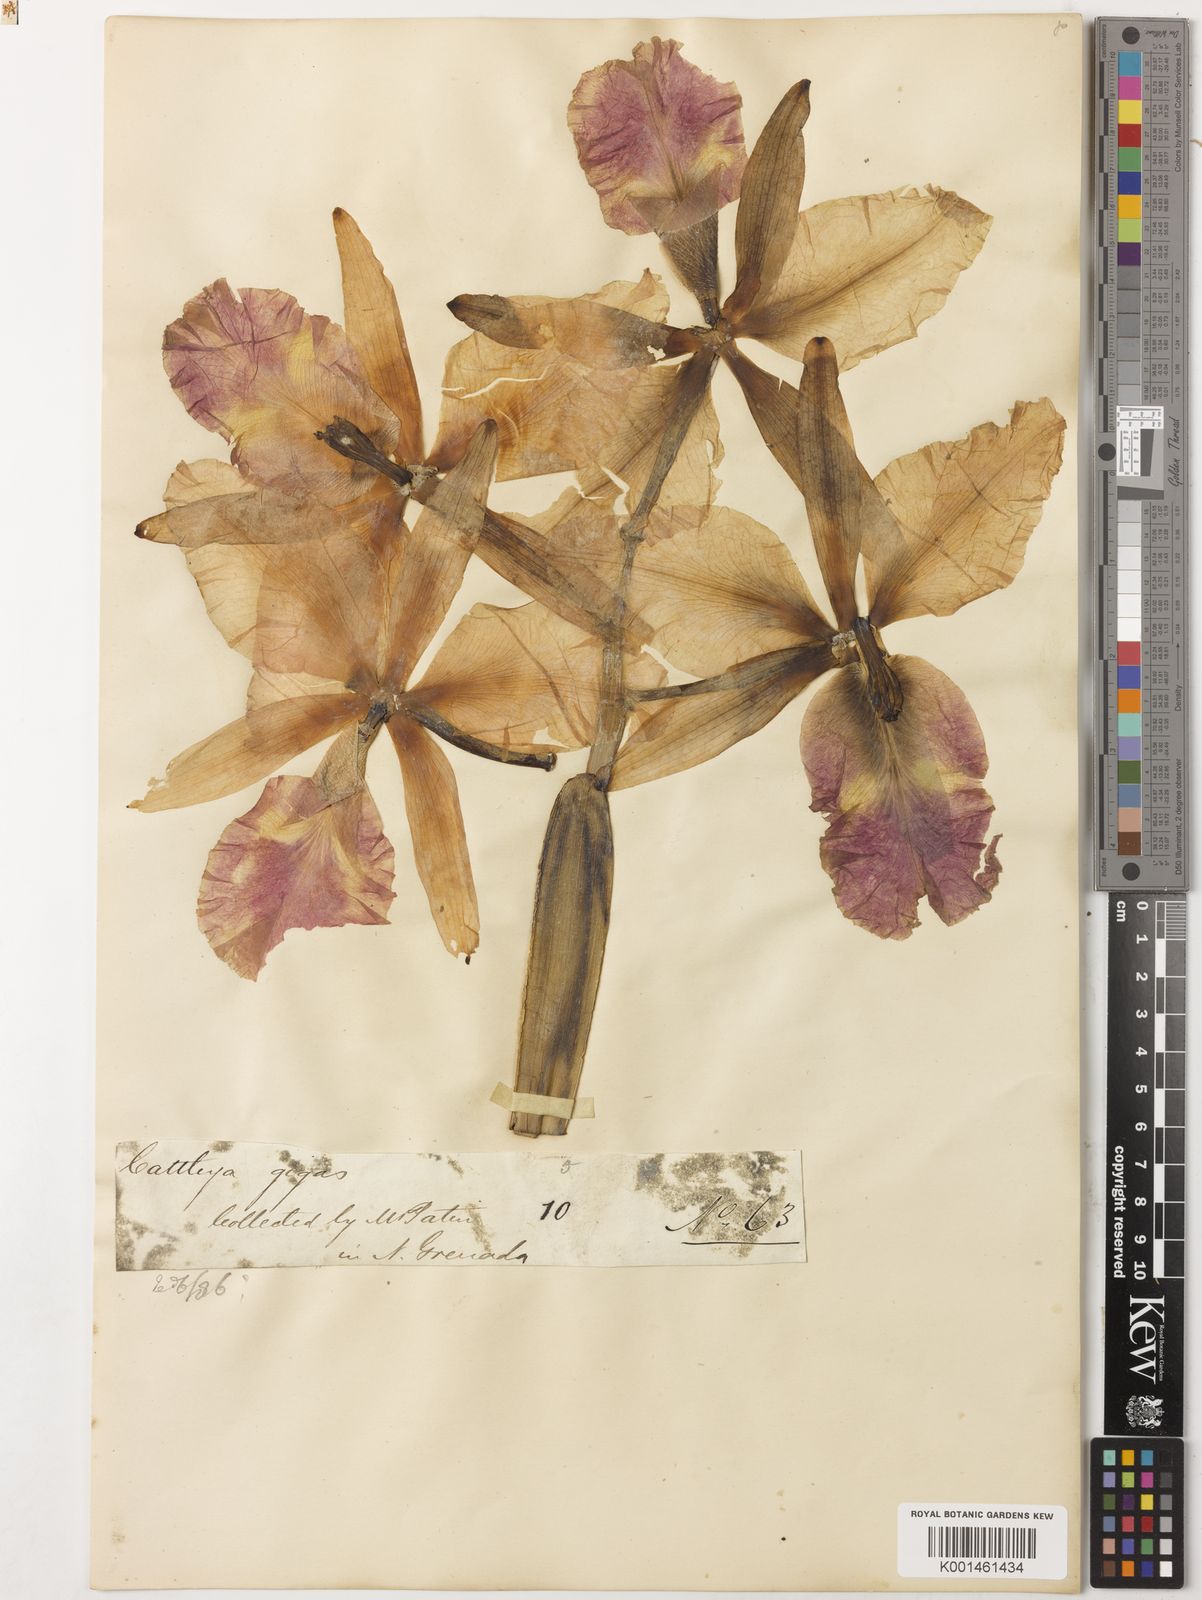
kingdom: Plantae
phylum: Tracheophyta
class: Liliopsida
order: Asparagales
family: Orchidaceae
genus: Cattleya
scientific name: Cattleya warscewiczii
